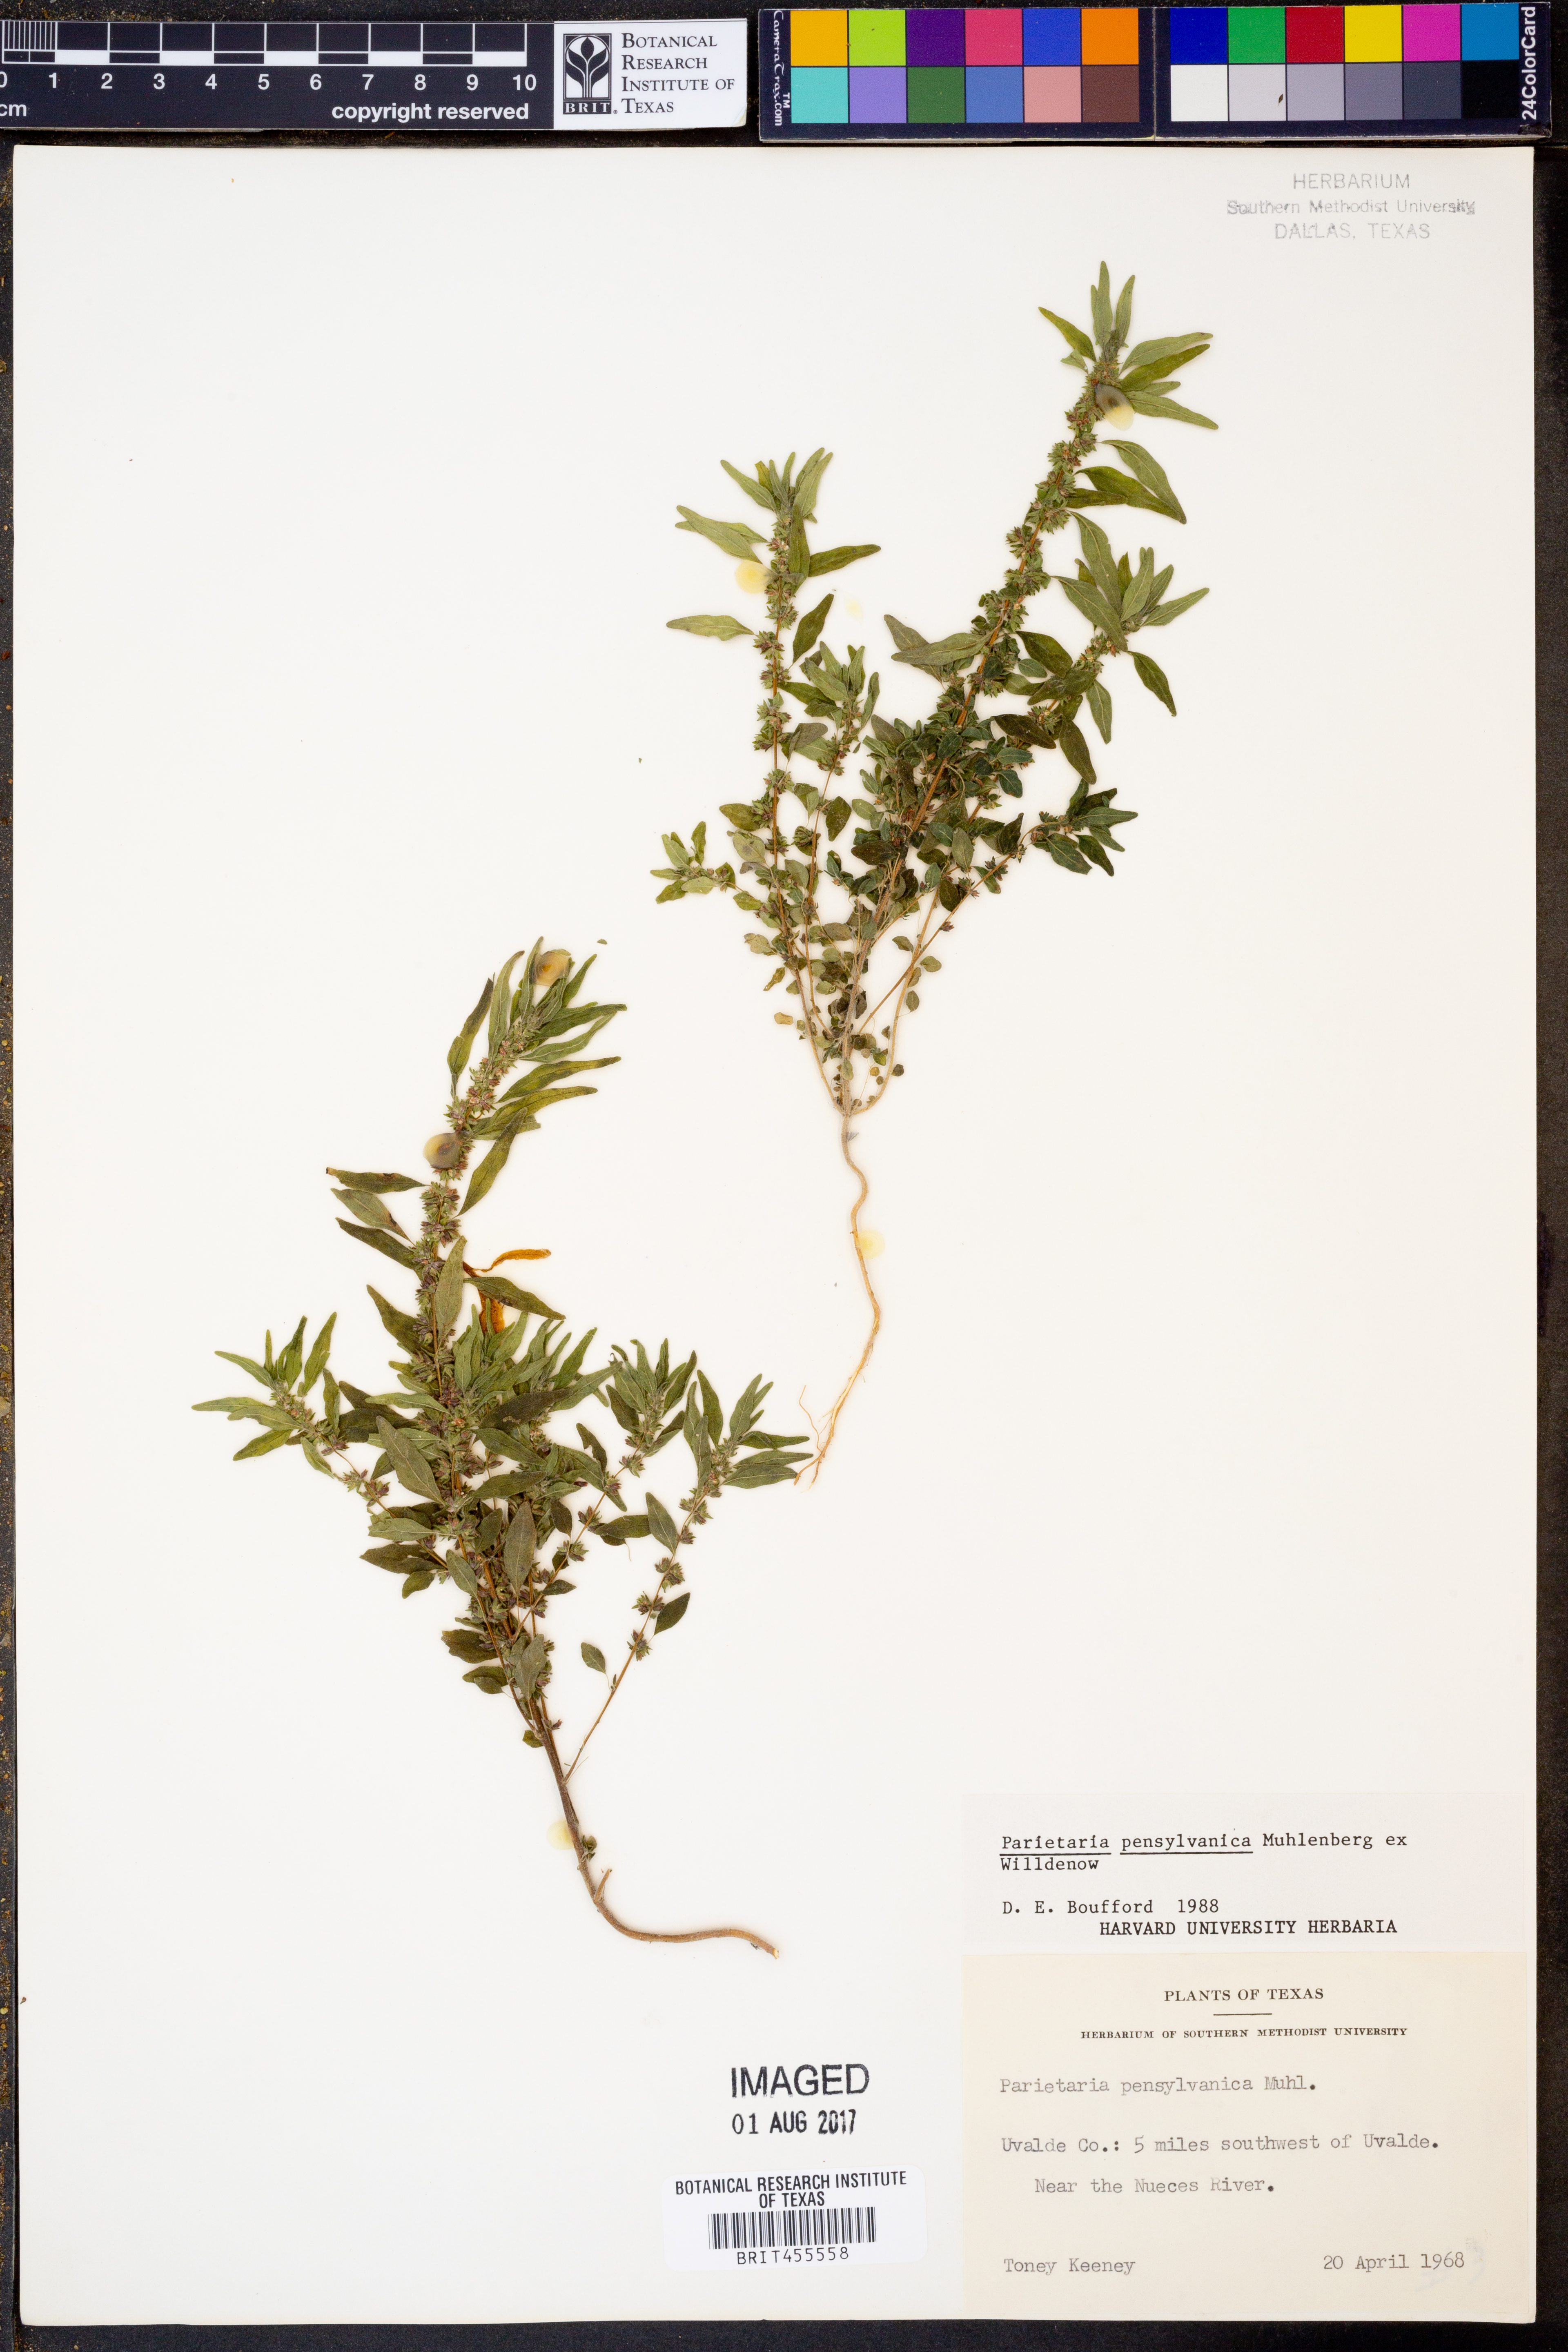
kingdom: Plantae
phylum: Tracheophyta
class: Magnoliopsida
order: Rosales
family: Urticaceae
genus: Parietaria
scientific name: Parietaria pensylvanica
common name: Pennsylvania pellitory
